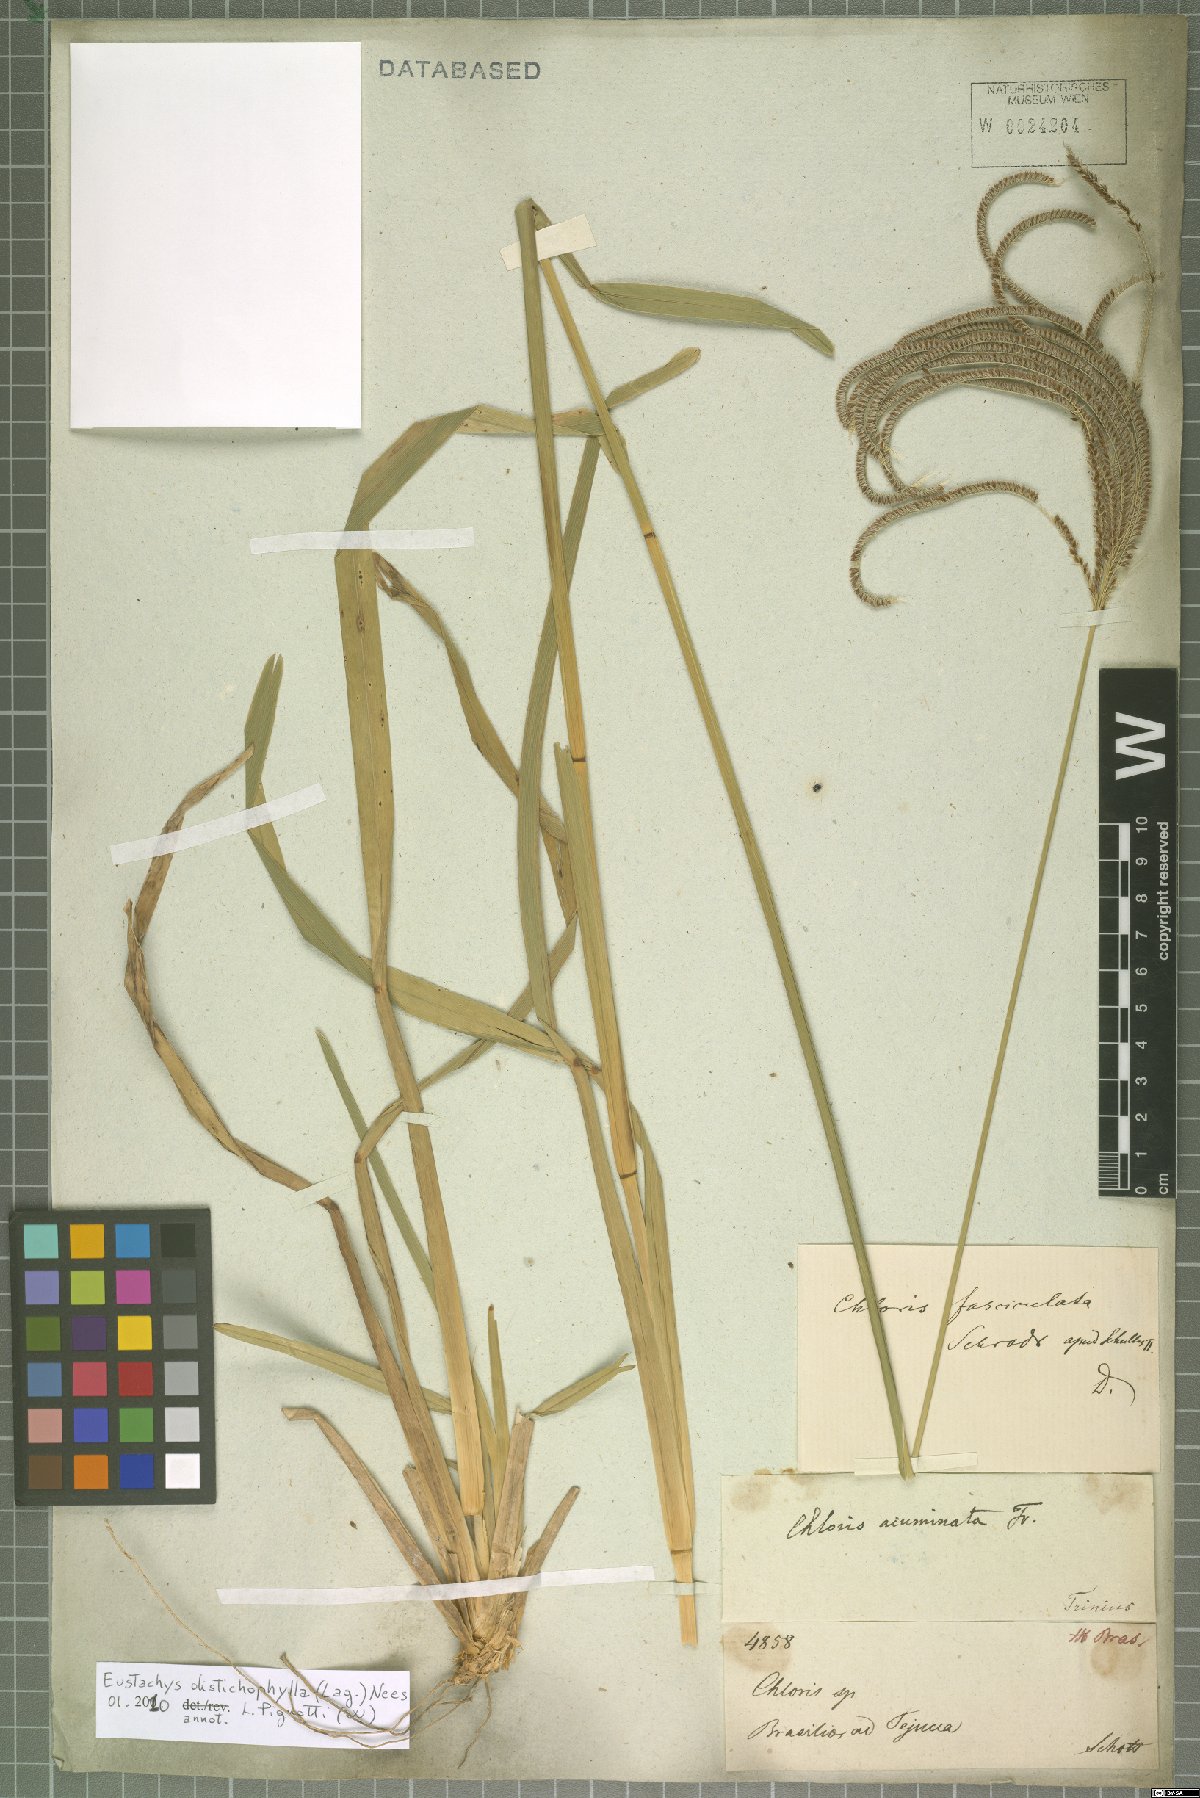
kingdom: Plantae
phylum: Tracheophyta
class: Liliopsida
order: Poales
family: Poaceae
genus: Eustachys
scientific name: Eustachys distichophylla
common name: Weeping fingergrass
